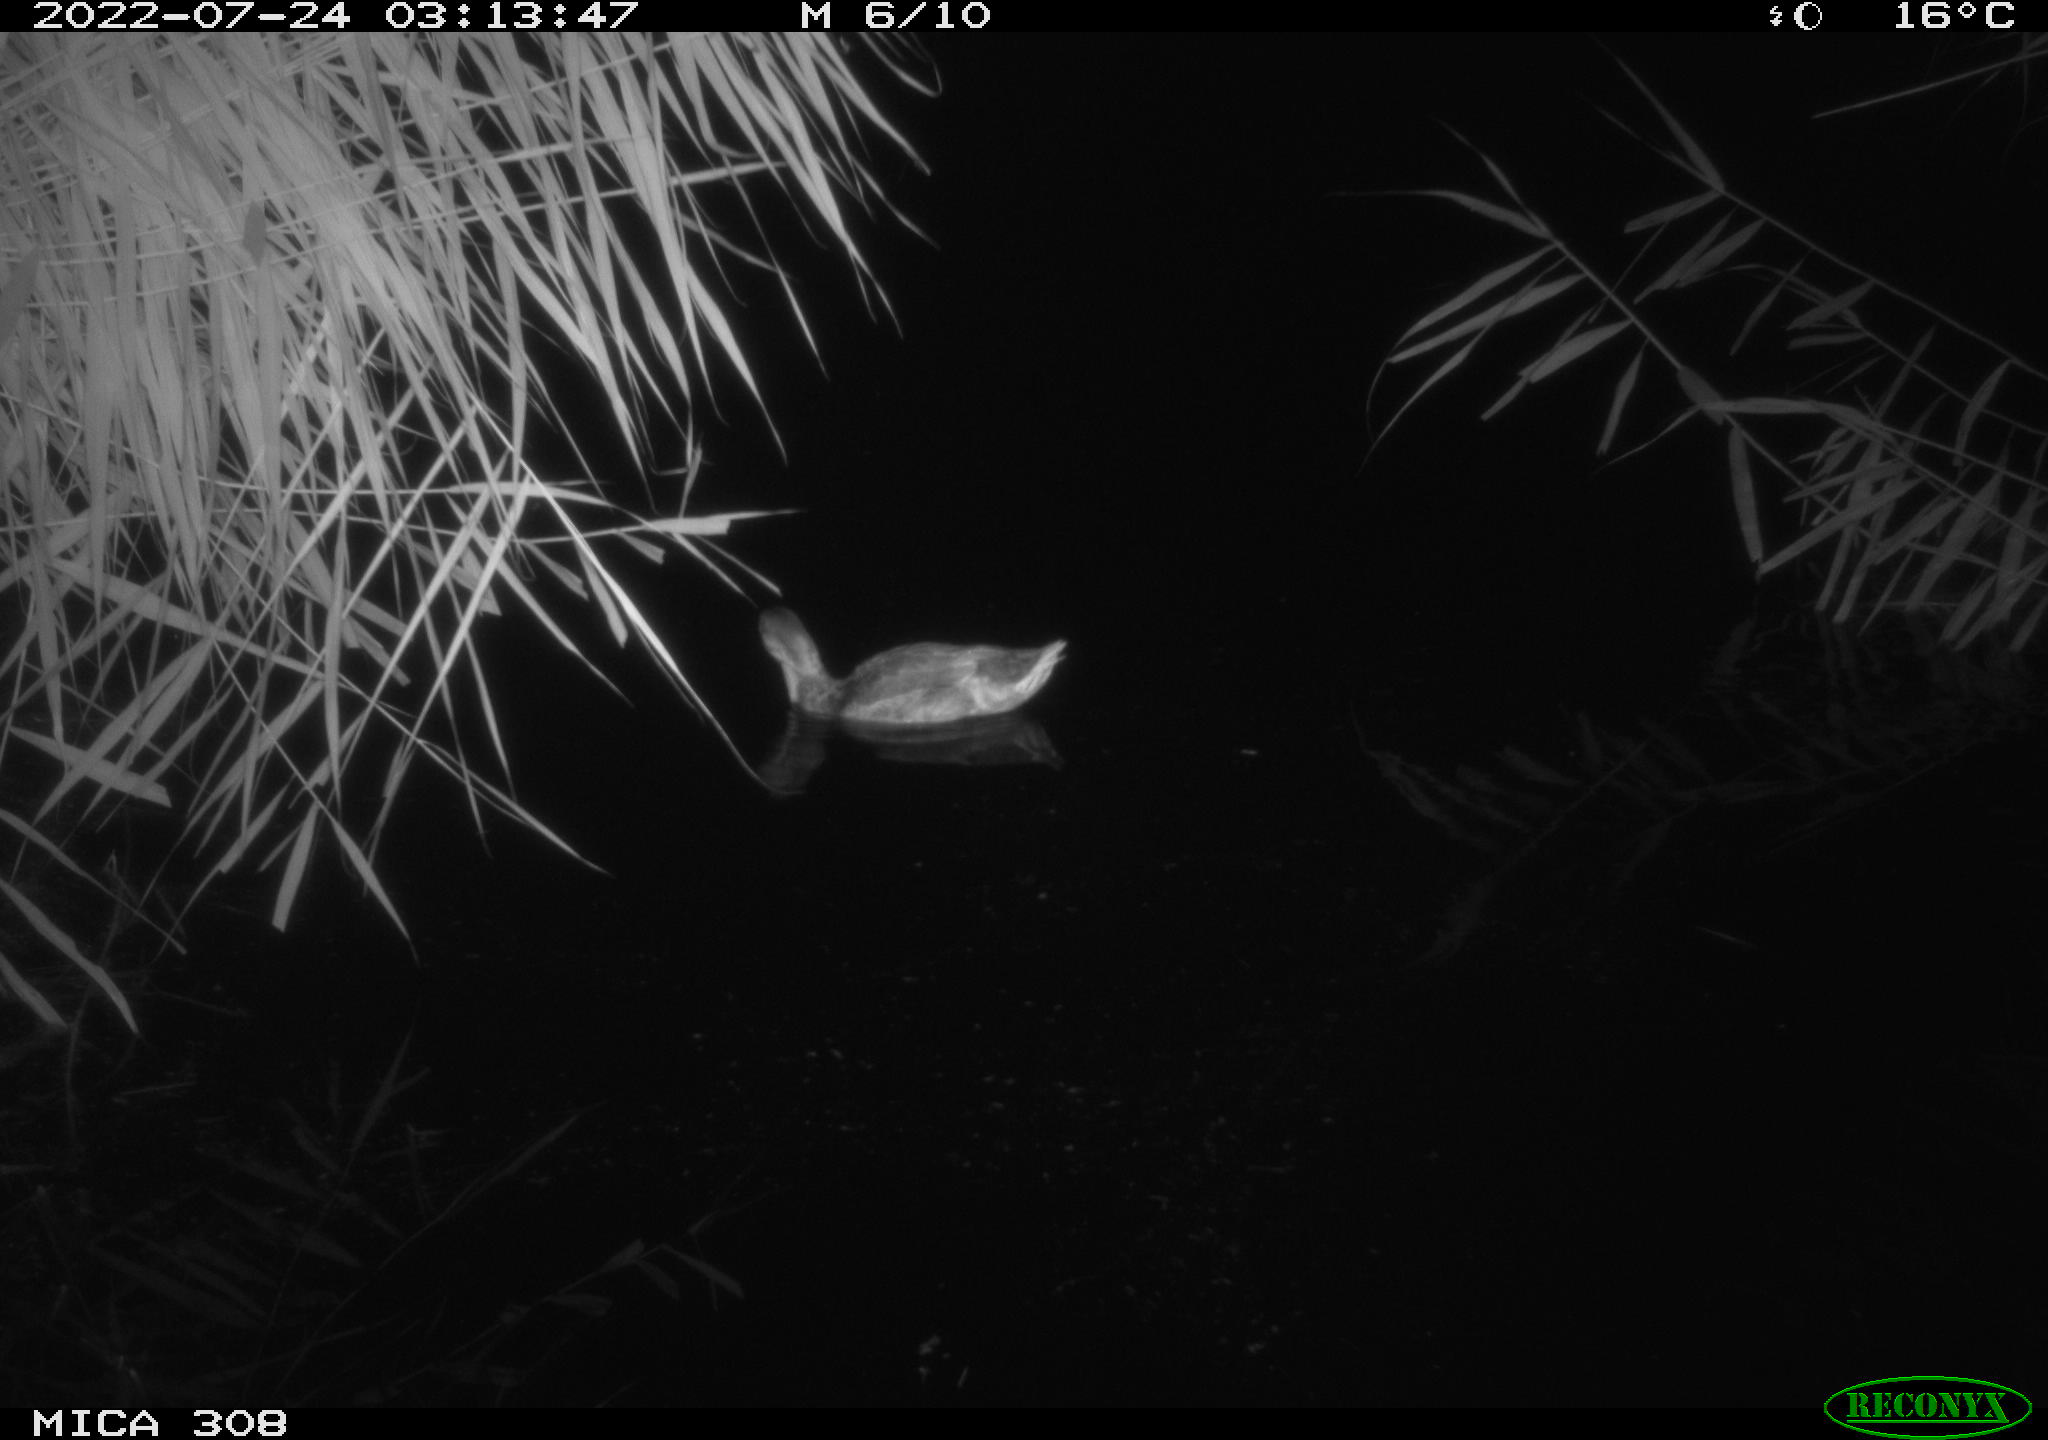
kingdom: Animalia
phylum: Chordata
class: Aves
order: Anseriformes
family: Anatidae
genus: Anas
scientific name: Anas platyrhynchos
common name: Mallard
